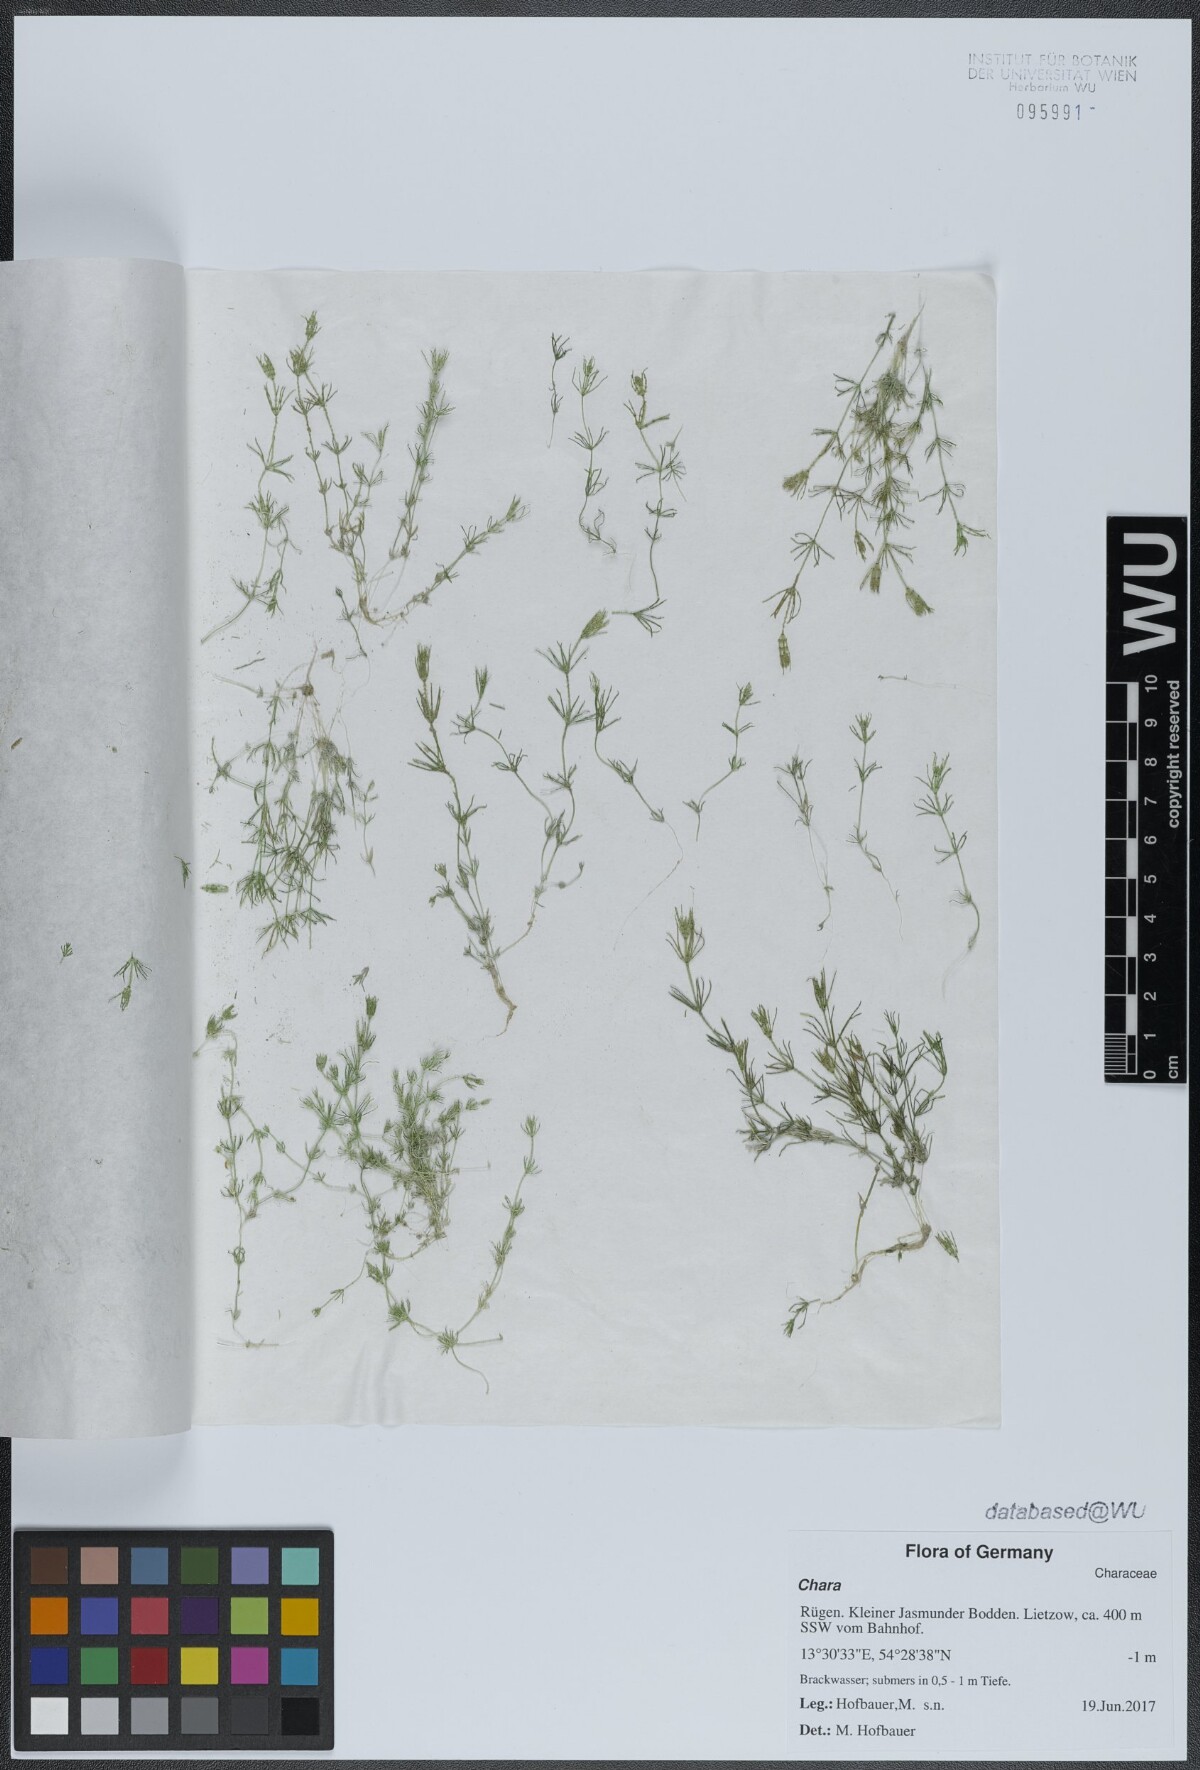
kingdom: Plantae
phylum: Charophyta
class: Charophyceae
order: Charales
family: Characeae
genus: Chara
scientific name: Chara
